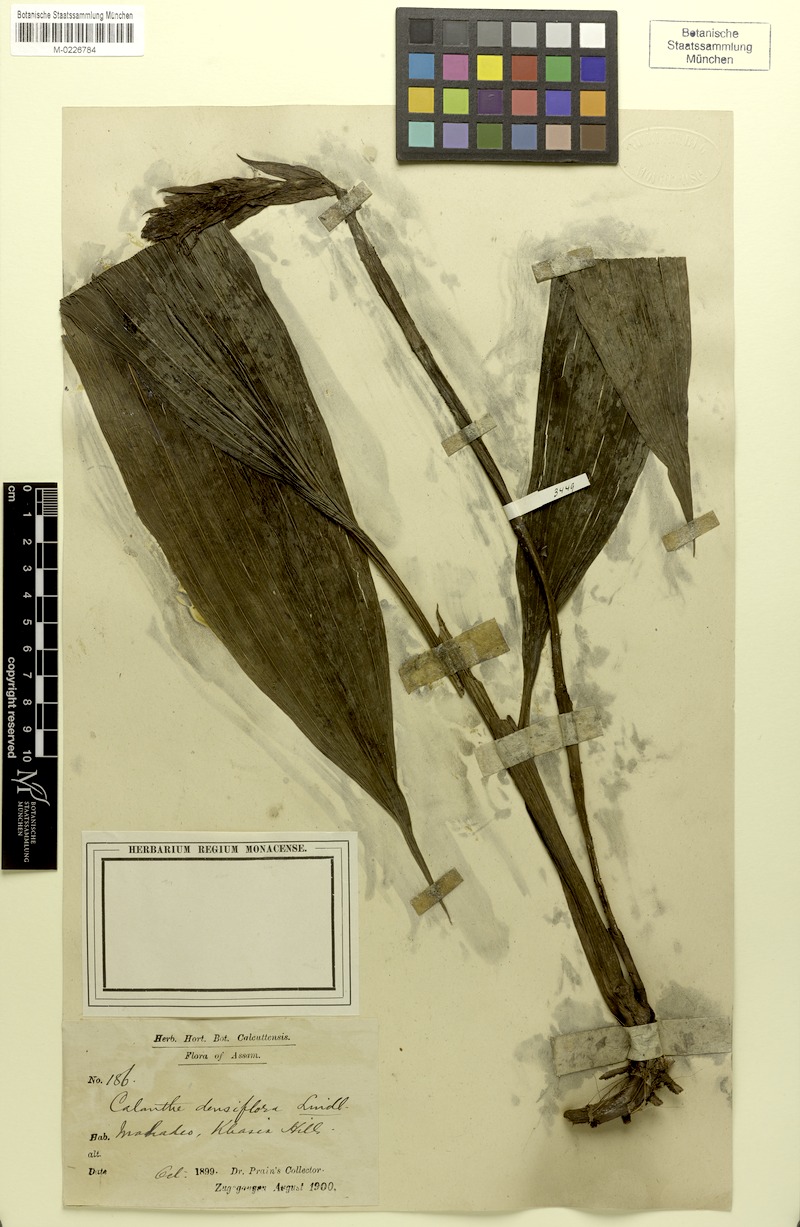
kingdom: Plantae
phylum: Tracheophyta
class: Liliopsida
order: Asparagales
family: Orchidaceae
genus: Calanthe
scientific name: Calanthe densiflora
